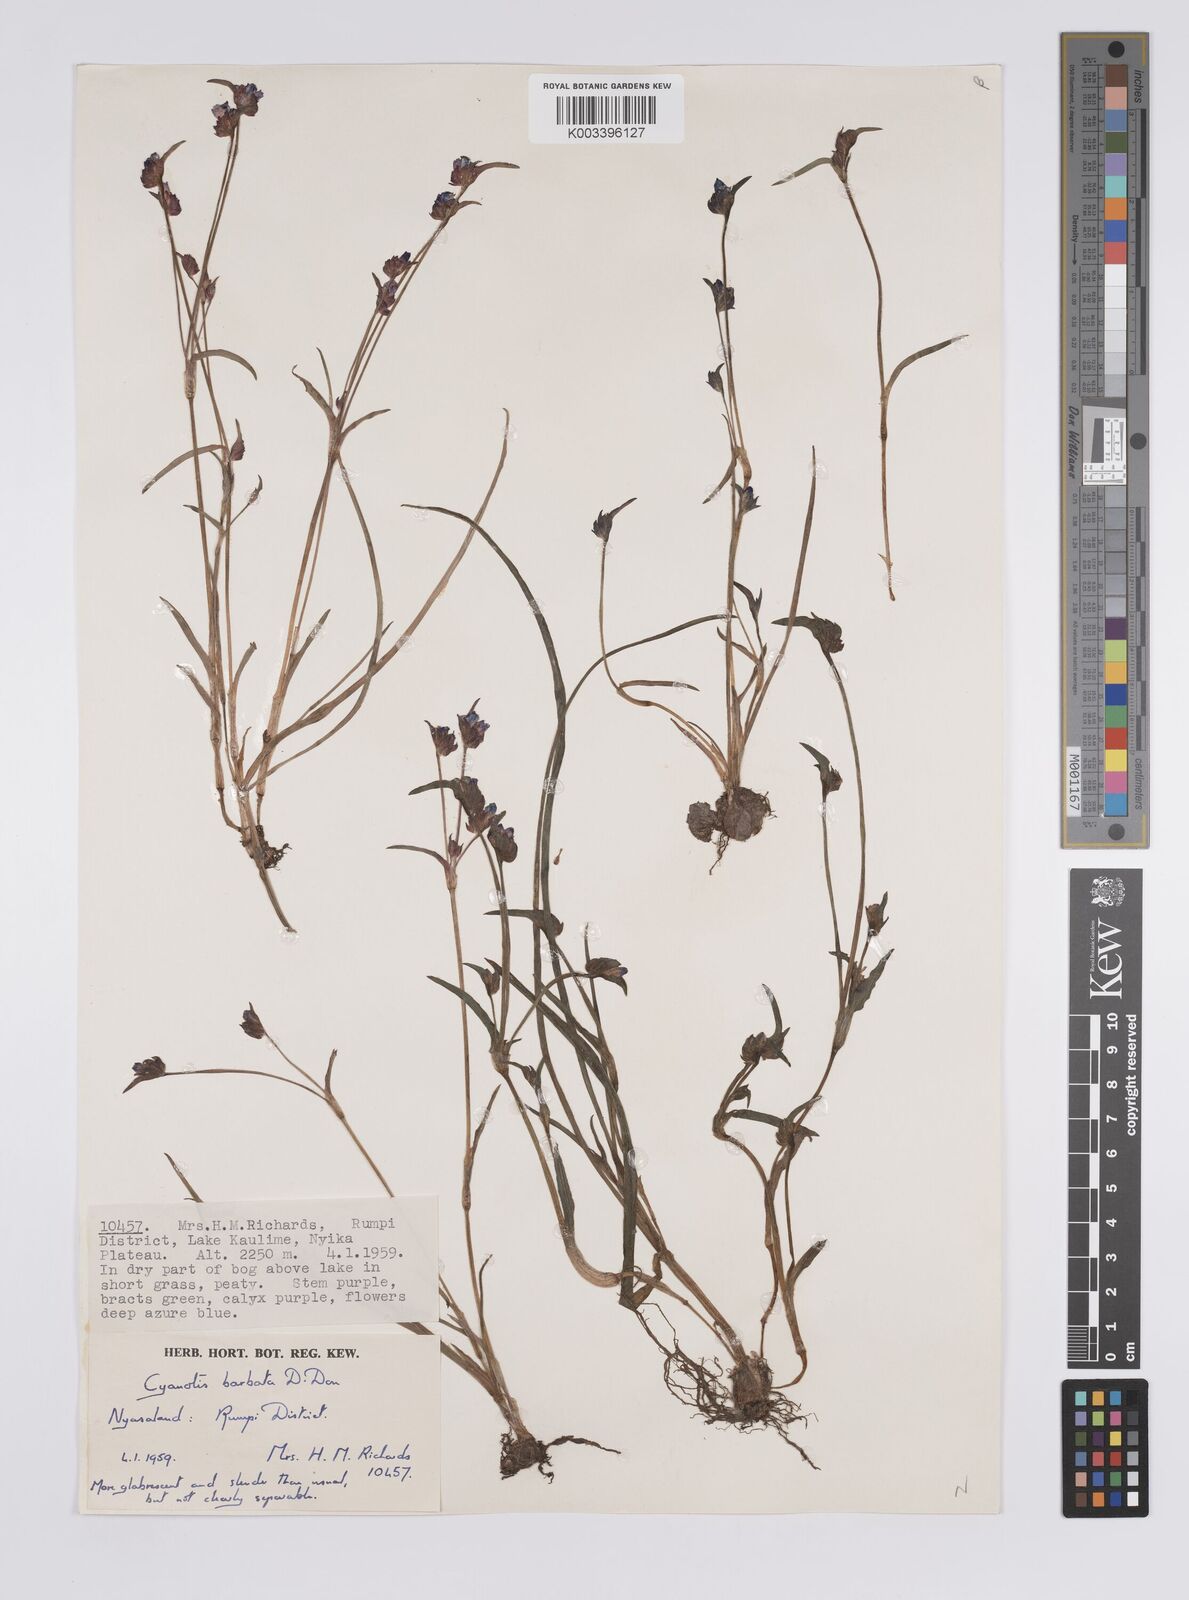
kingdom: Plantae
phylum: Tracheophyta
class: Liliopsida
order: Commelinales
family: Commelinaceae
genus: Cyanotis
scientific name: Cyanotis vaga
